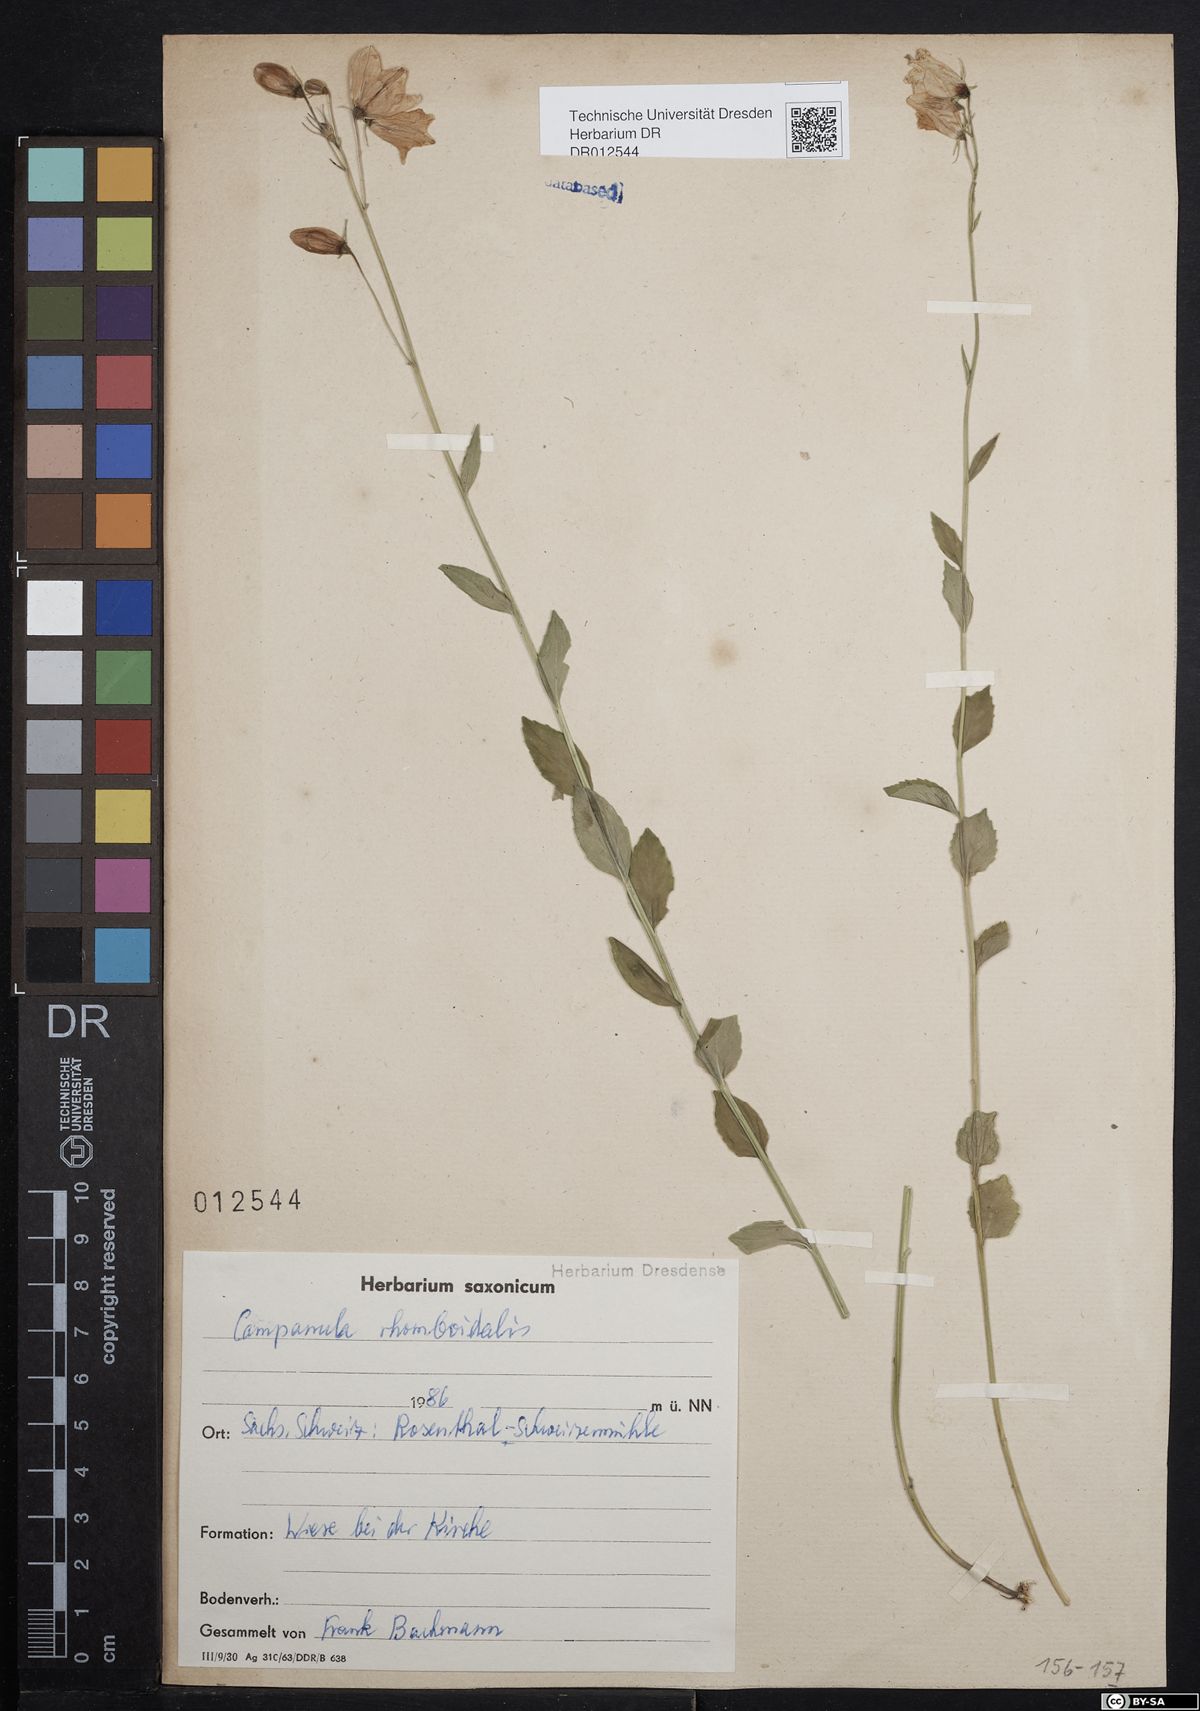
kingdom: Plantae
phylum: Tracheophyta
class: Magnoliopsida
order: Asterales
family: Campanulaceae
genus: Campanula
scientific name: Campanula rhomboidalis
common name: Broad-leaved harebell
